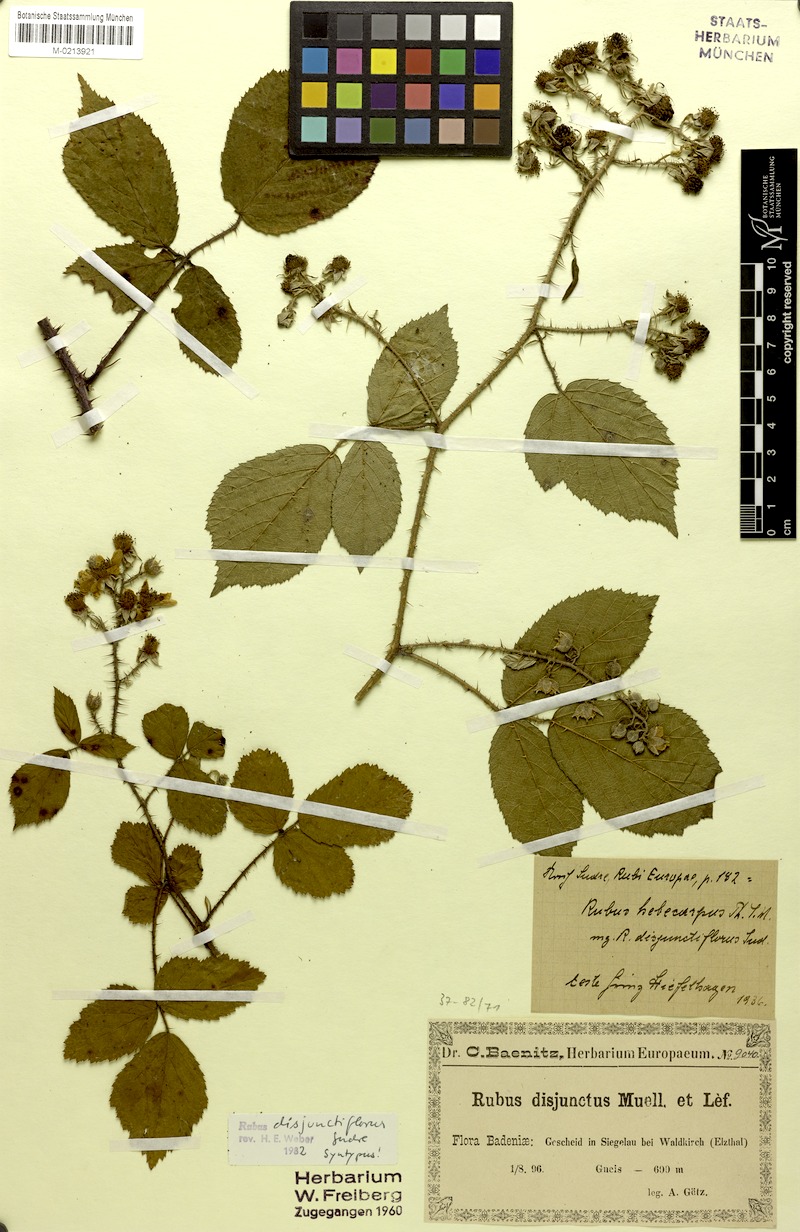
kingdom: Plantae
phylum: Tracheophyta
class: Magnoliopsida
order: Rosales
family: Rosaceae
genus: Rubus
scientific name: Rubus hebecarpos
